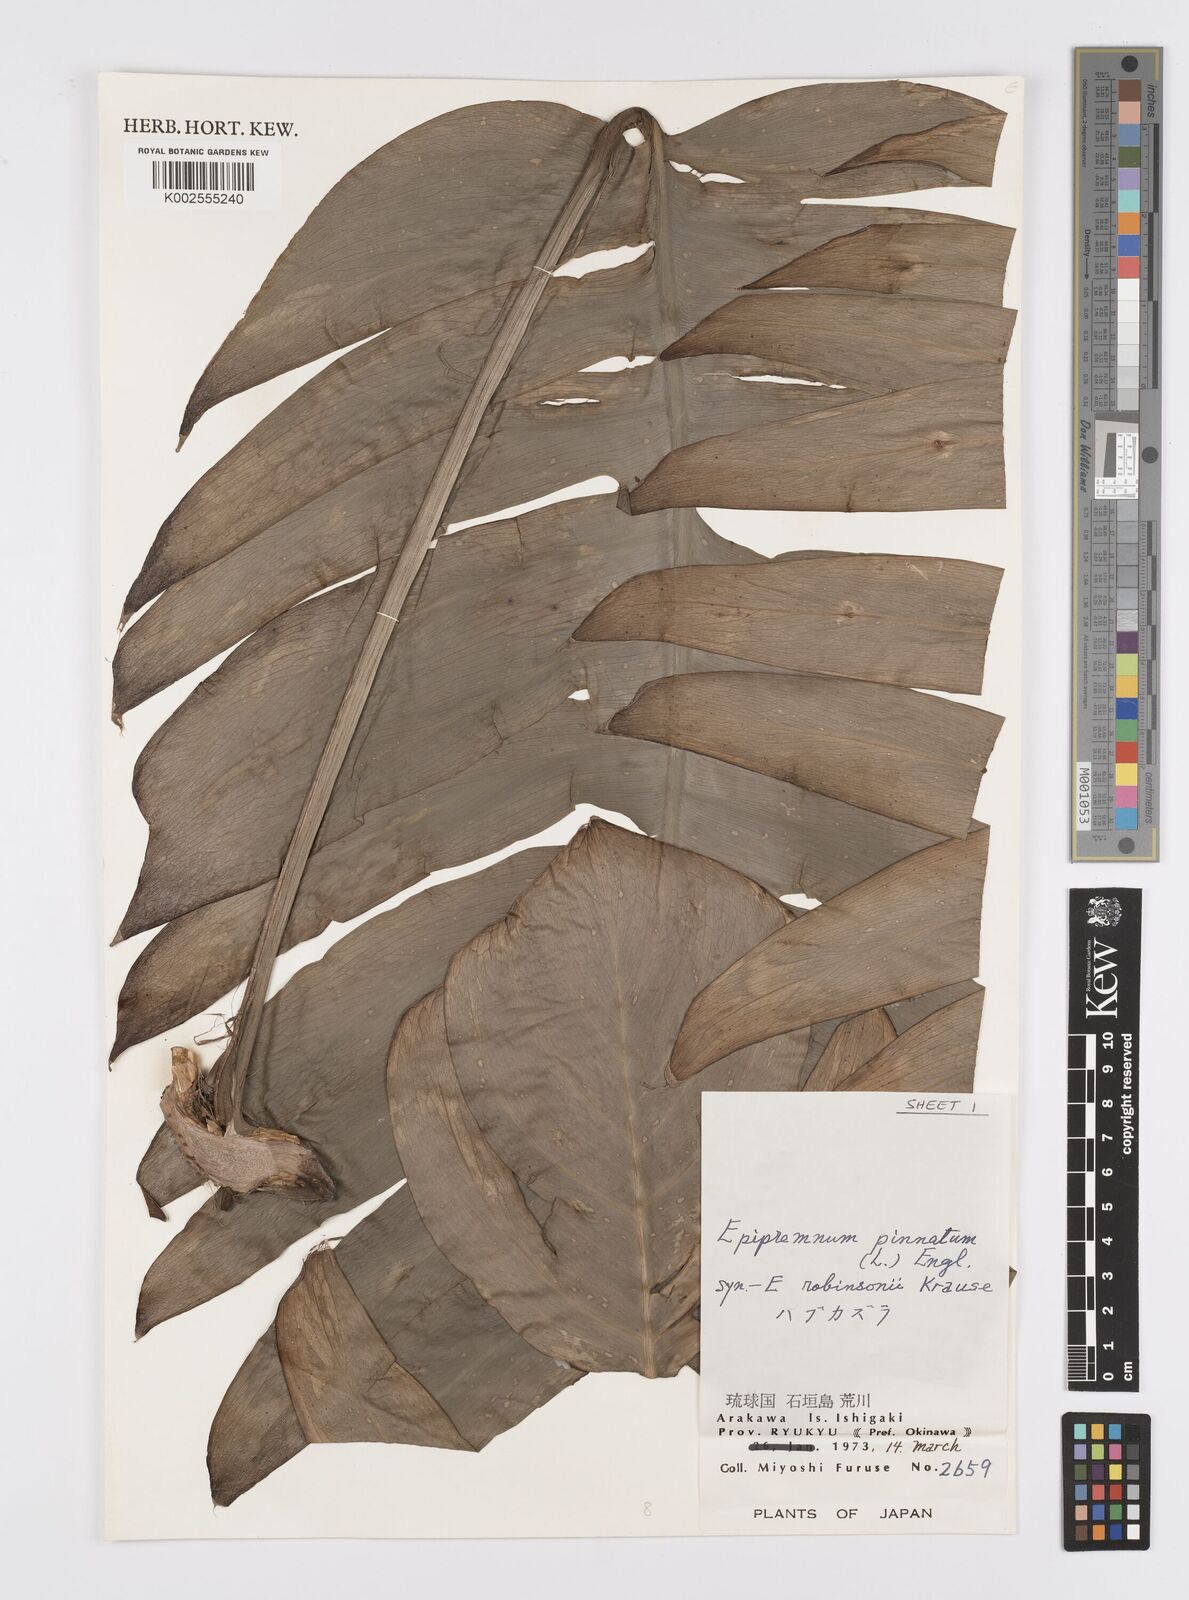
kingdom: Plantae
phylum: Tracheophyta
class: Liliopsida
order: Alismatales
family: Araceae
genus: Epipremnum
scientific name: Epipremnum pinnatum
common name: Centipede tongavine
